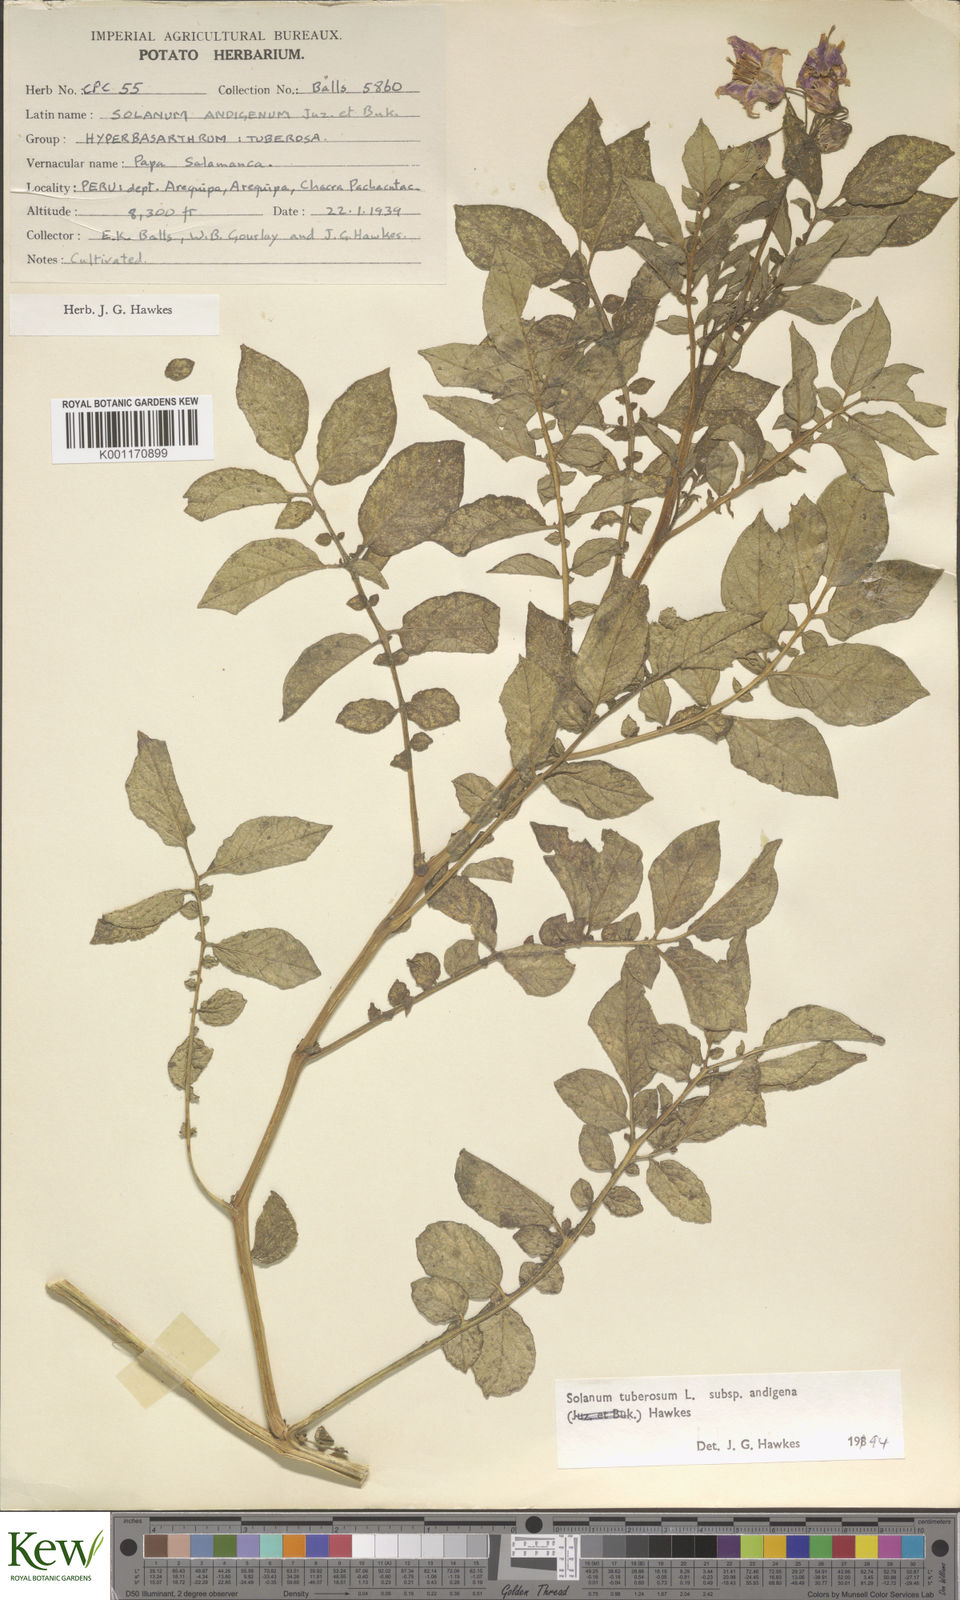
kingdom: Plantae
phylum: Tracheophyta
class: Magnoliopsida
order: Solanales
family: Solanaceae
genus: Solanum
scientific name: Solanum tuberosum
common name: Potato
